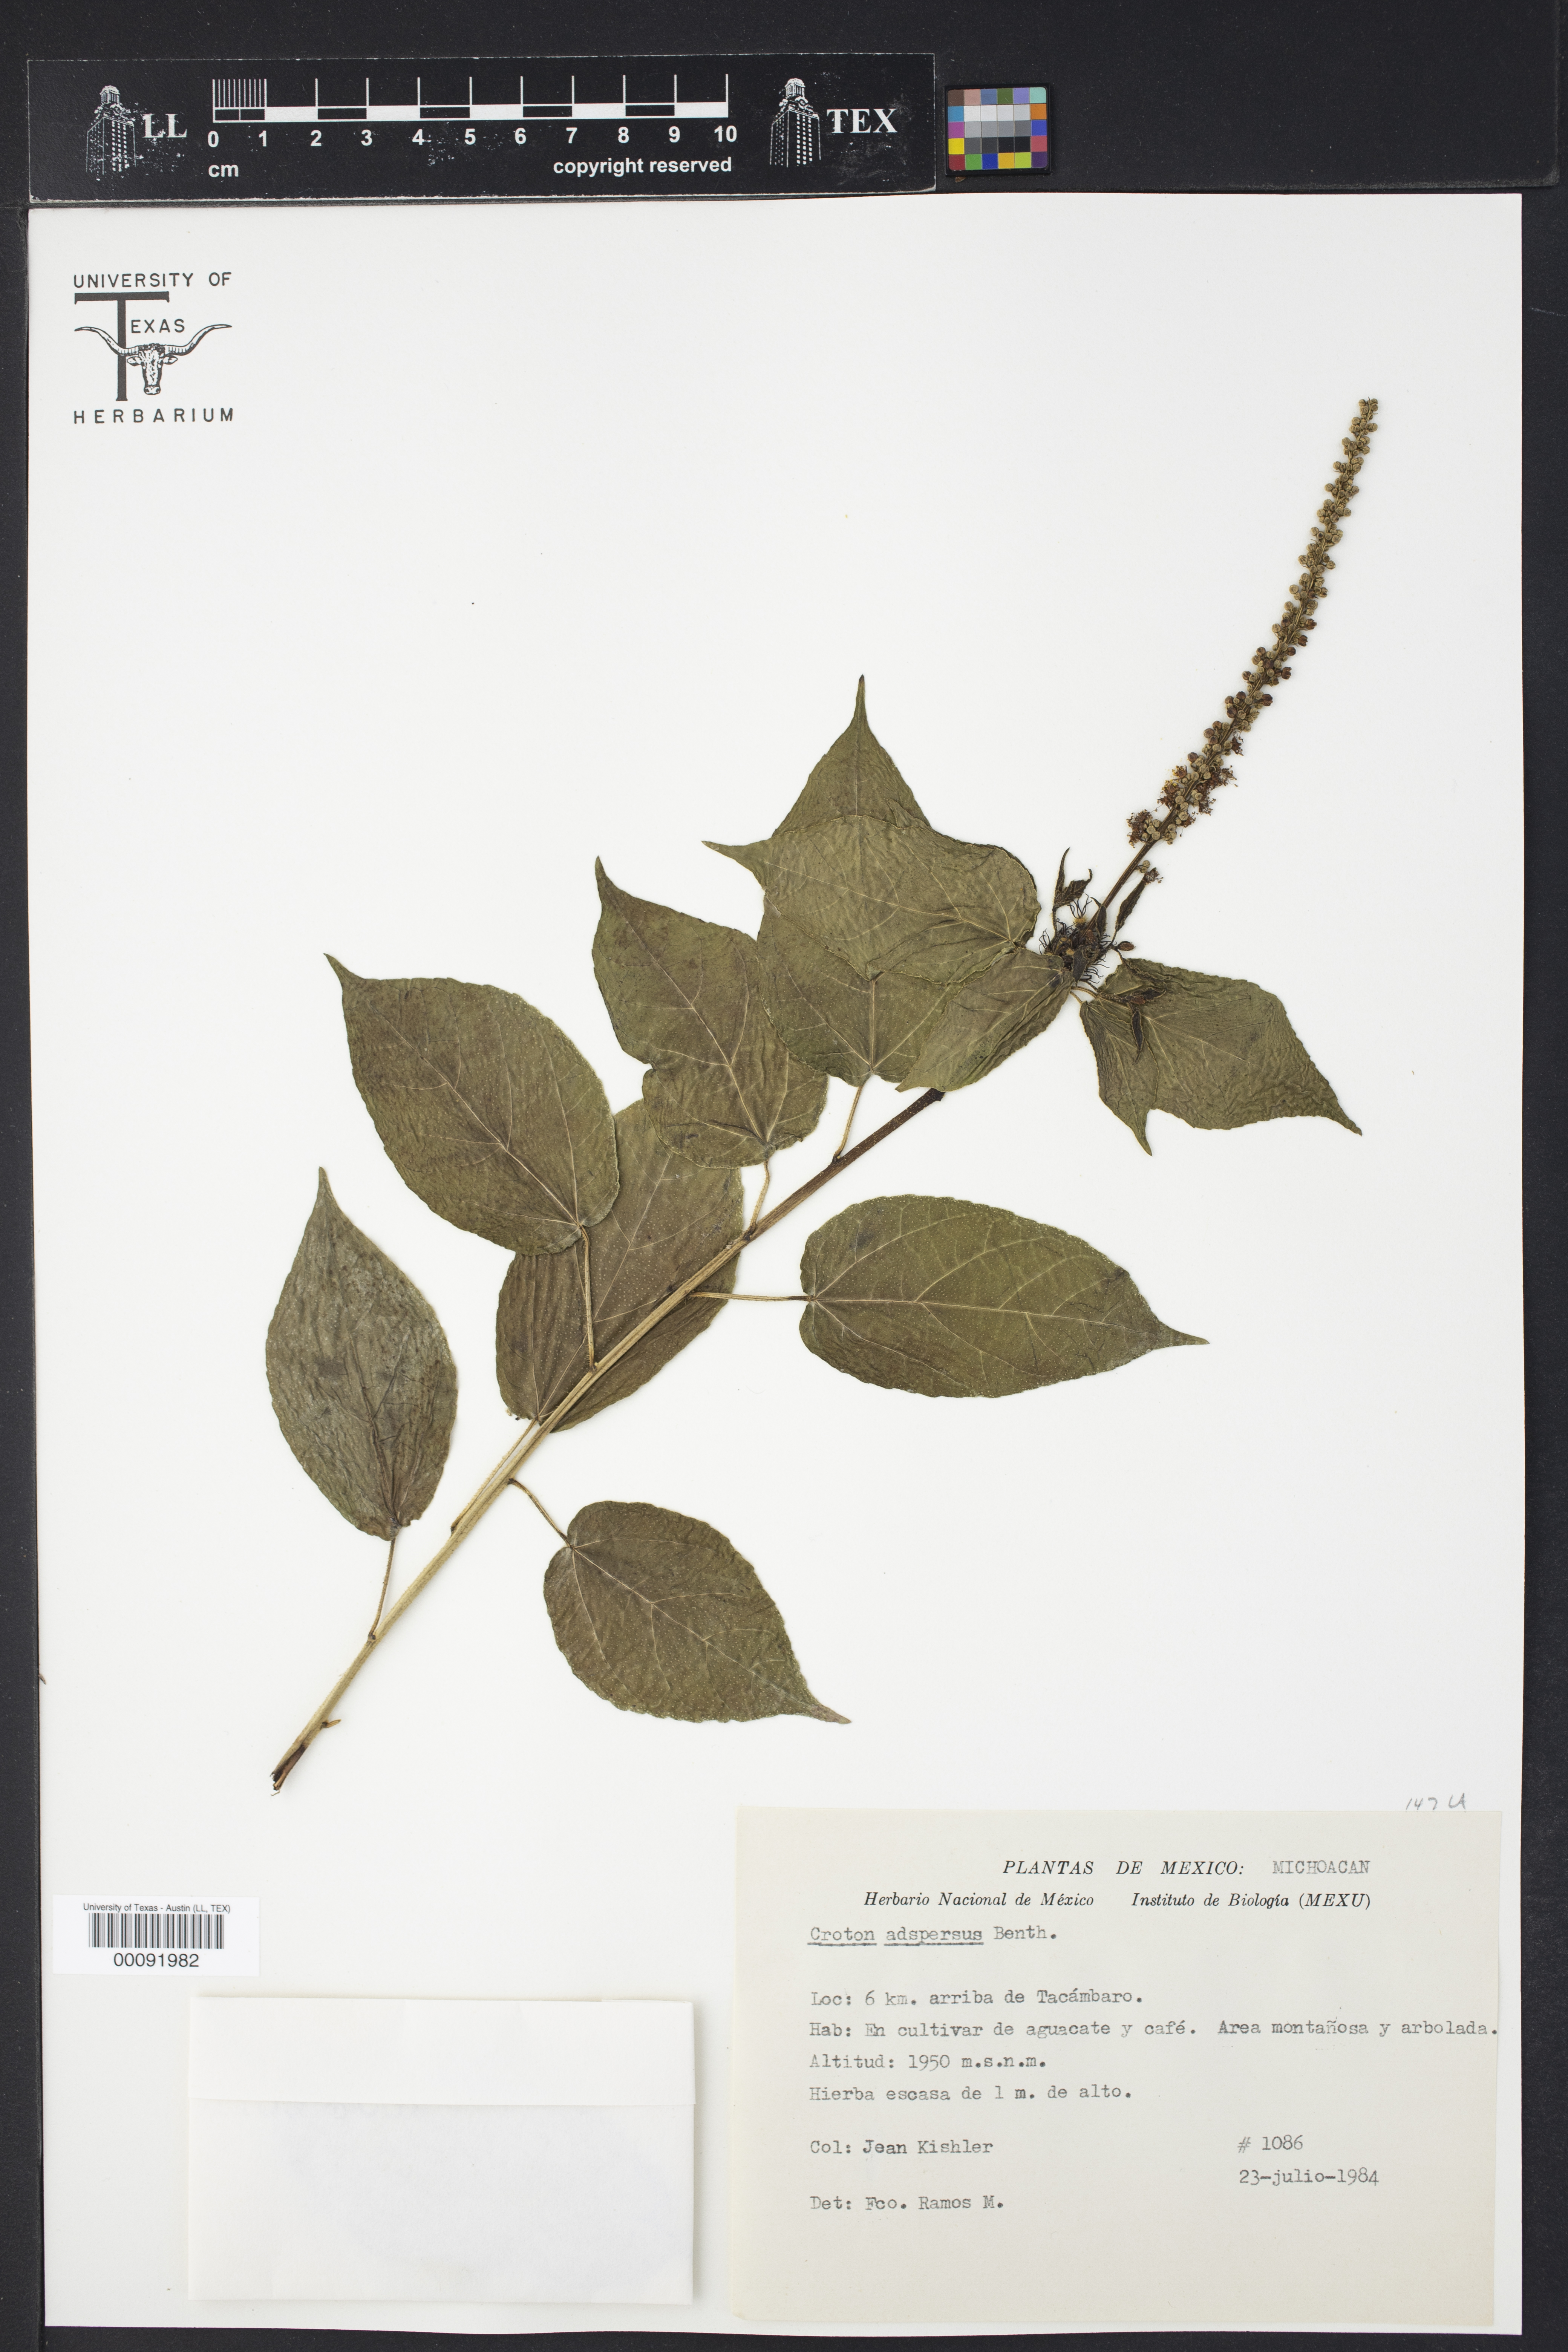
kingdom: Plantae
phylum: Tracheophyta
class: Magnoliopsida
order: Malpighiales
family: Euphorbiaceae
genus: Croton
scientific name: Croton adspersus
